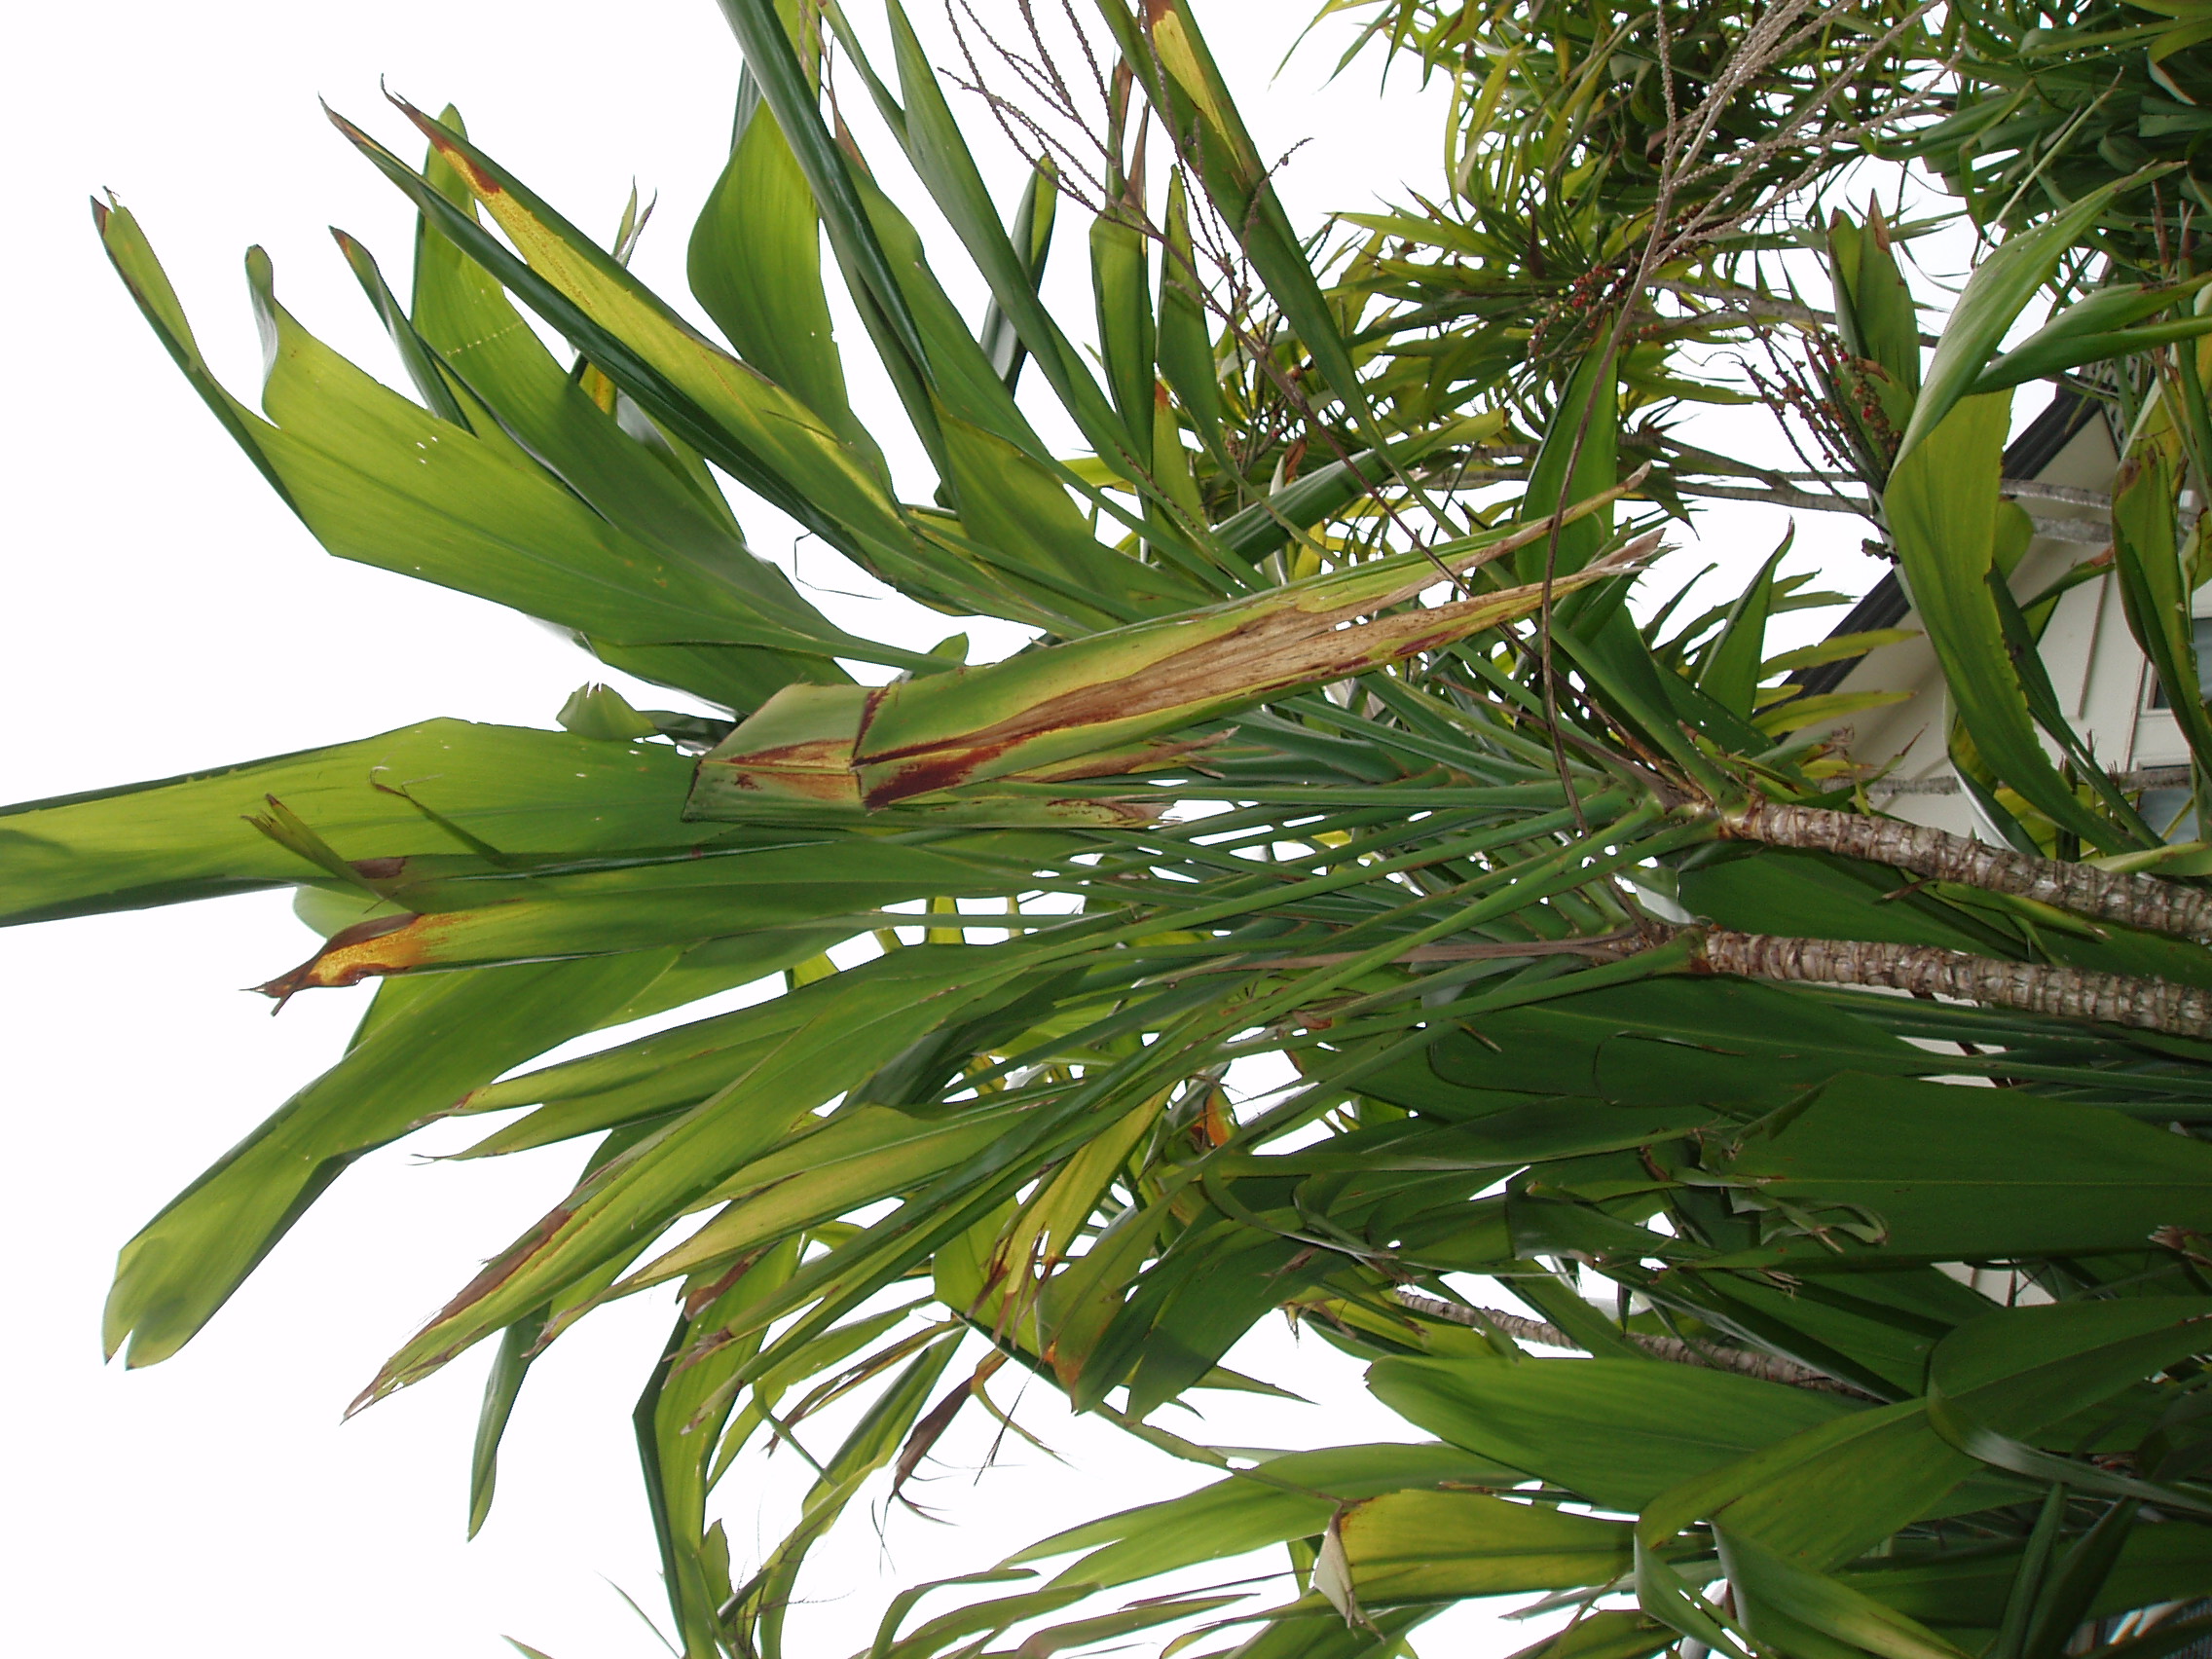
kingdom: Plantae
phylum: Tracheophyta
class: Liliopsida
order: Asparagales
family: Asparagaceae
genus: Cordyline
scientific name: Cordyline petiolaris
